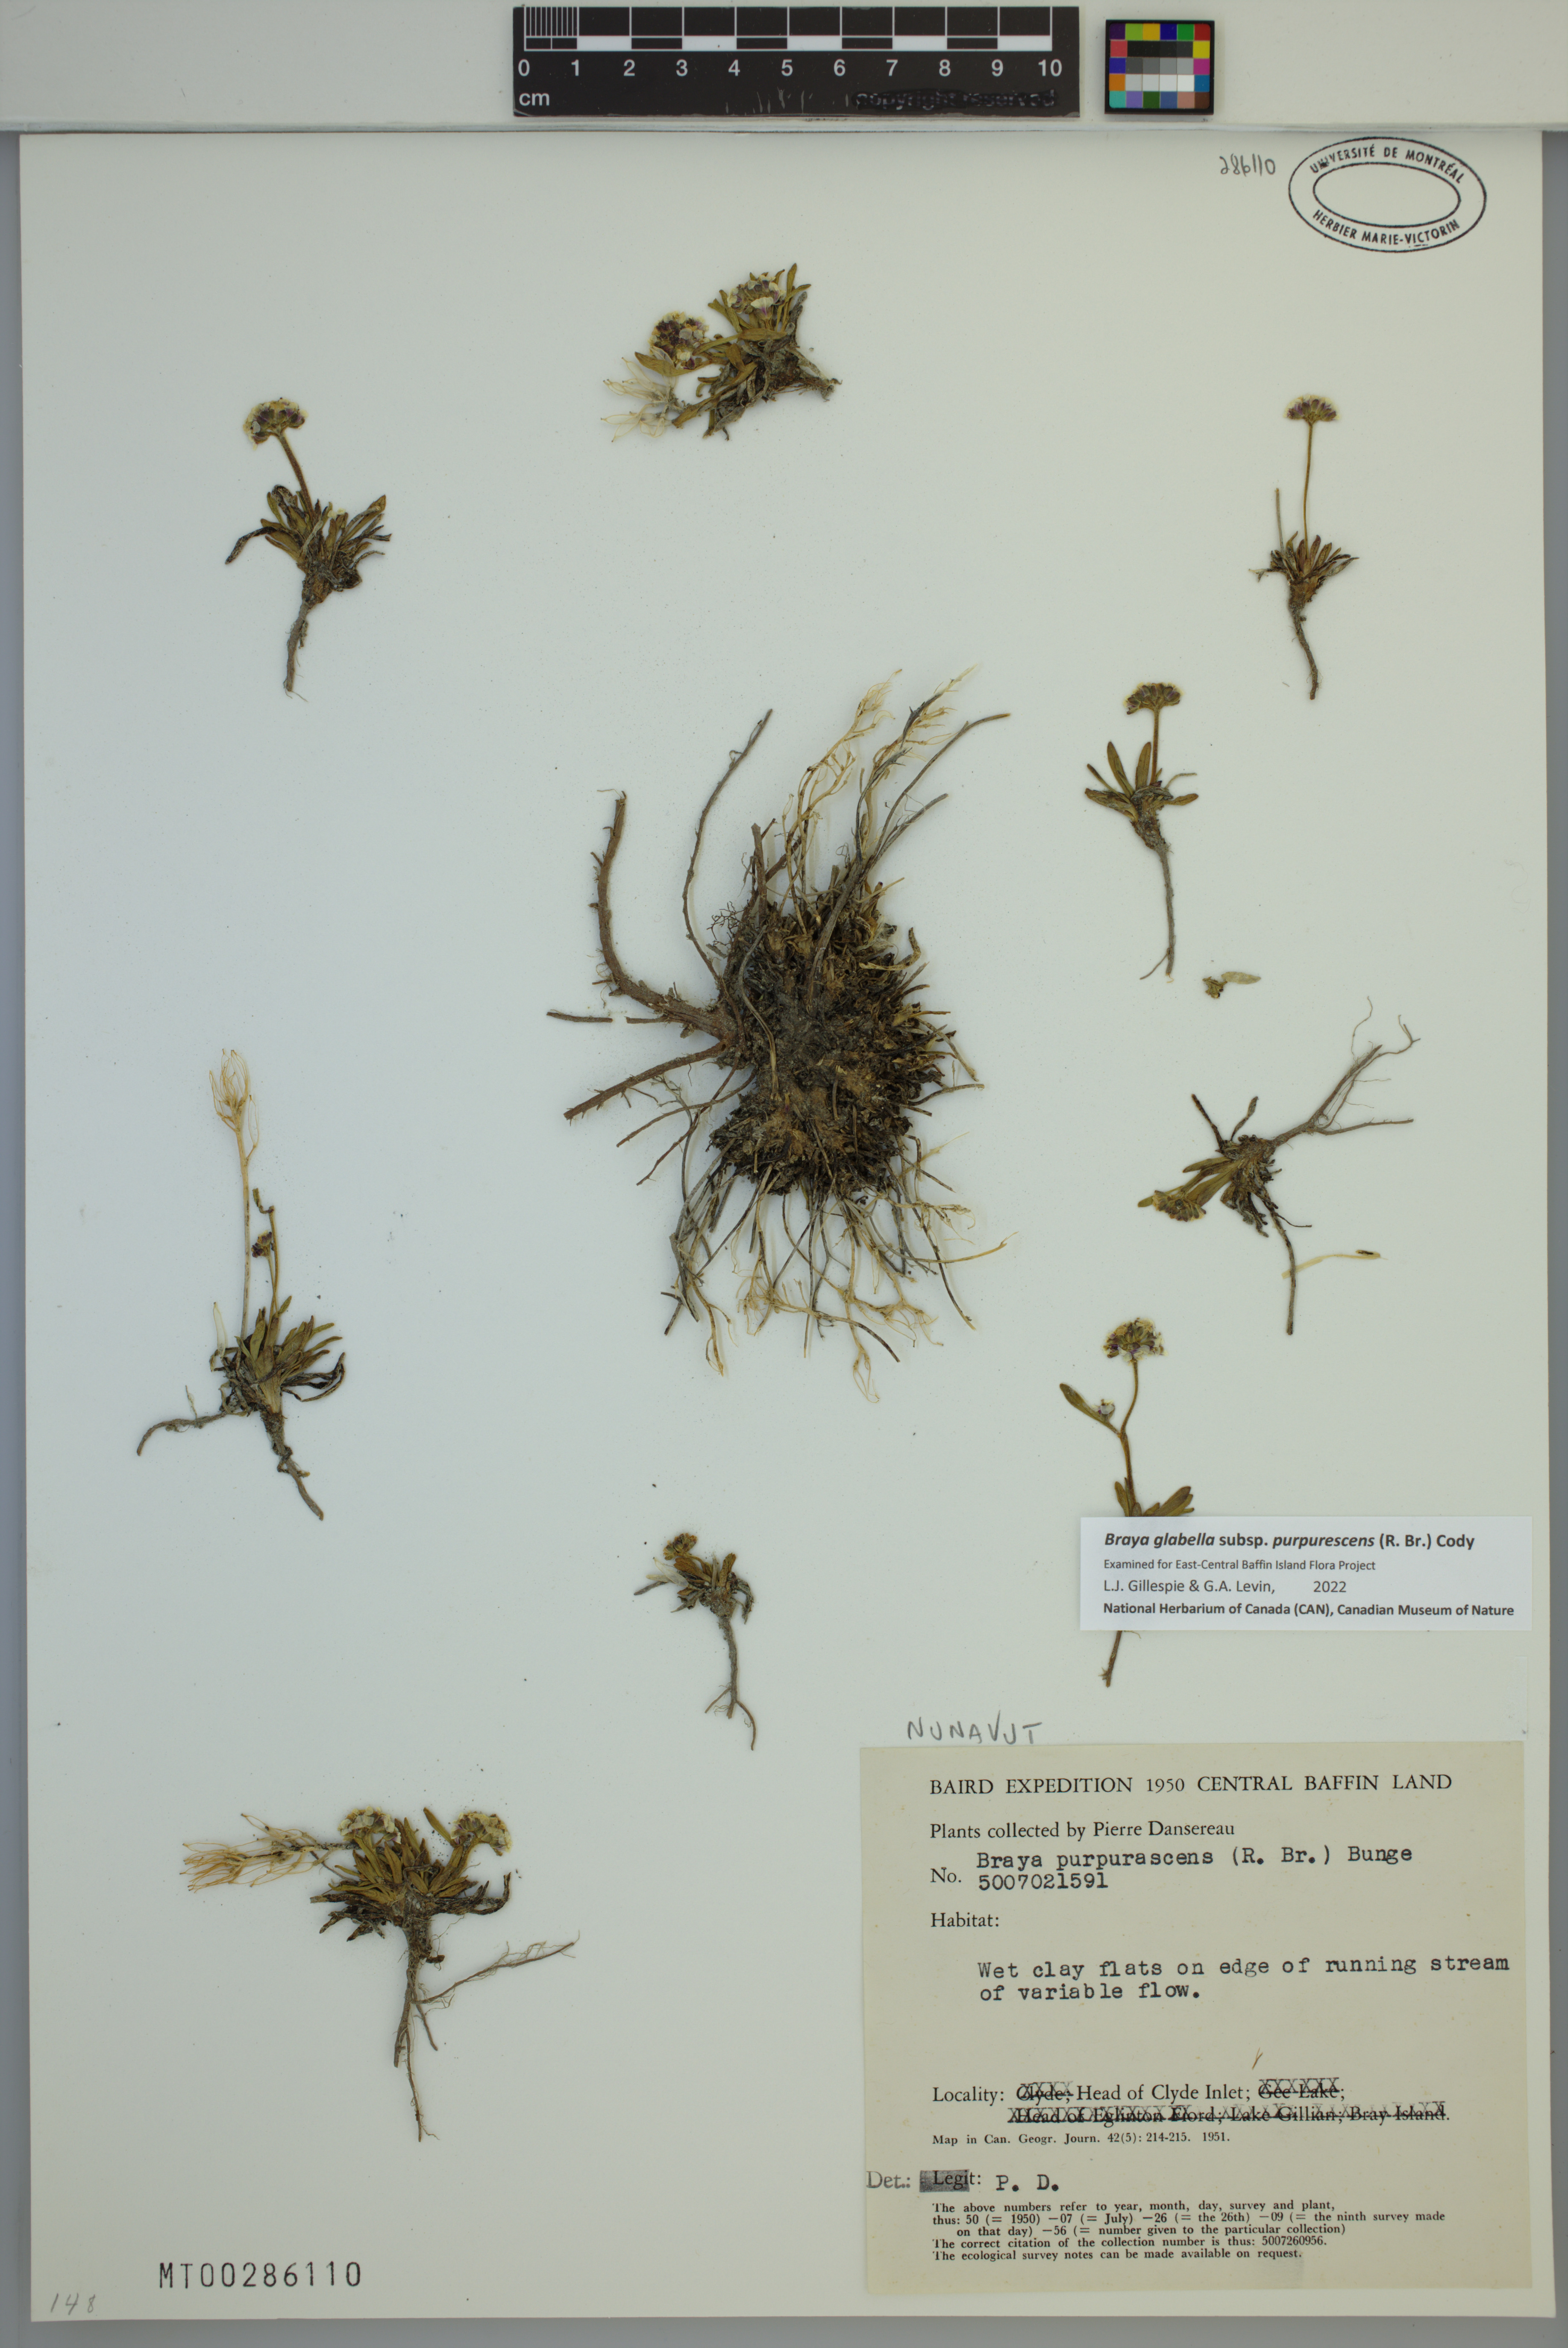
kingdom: Plantae
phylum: Tracheophyta
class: Magnoliopsida
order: Brassicales
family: Brassicaceae
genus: Braya
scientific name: Braya purpurascens
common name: Alpine braya
